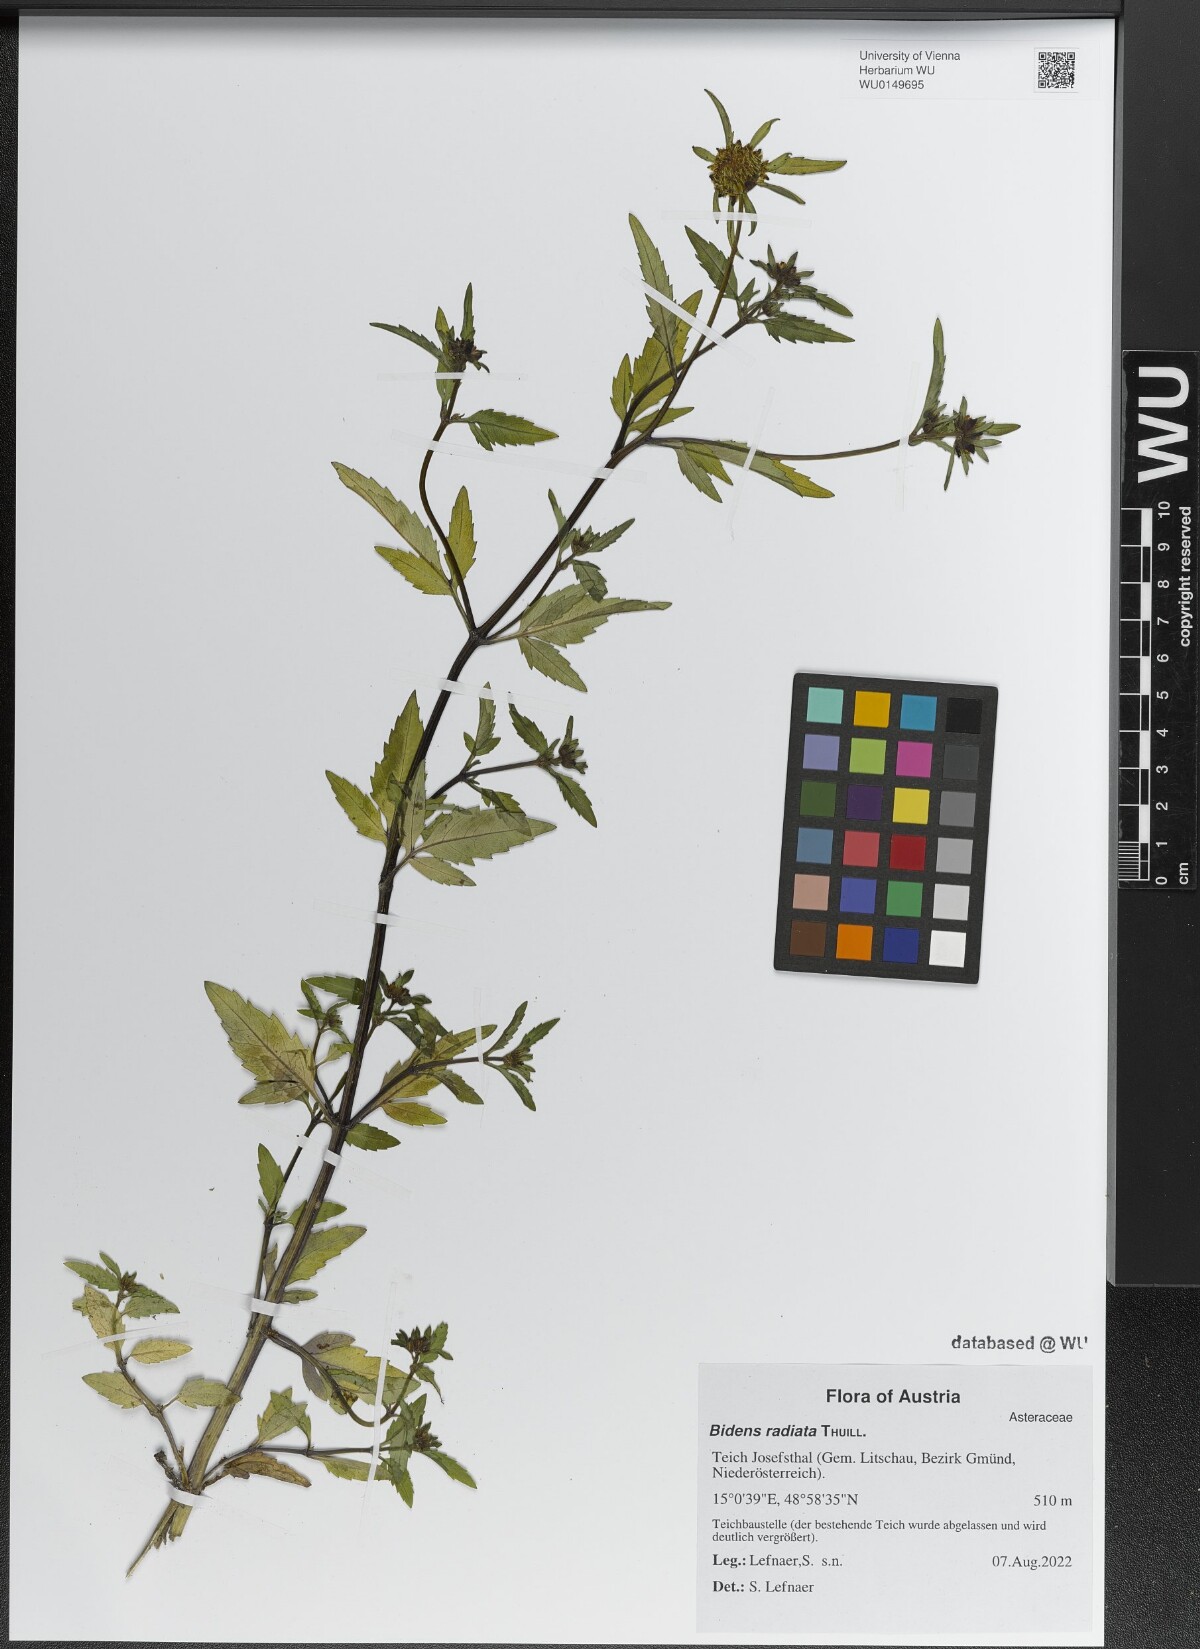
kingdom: Plantae
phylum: Tracheophyta
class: Magnoliopsida
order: Asterales
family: Asteraceae
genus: Bidens
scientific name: Bidens radiata
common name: Radiating bur-marigold
